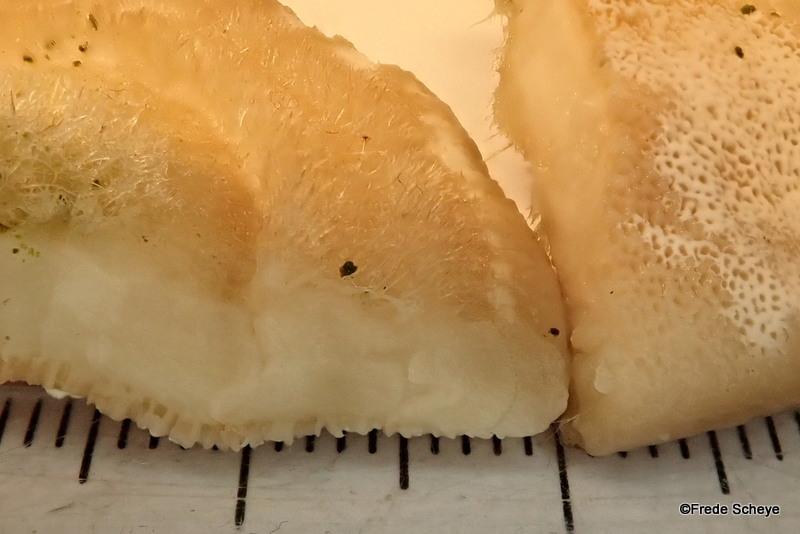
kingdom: Fungi
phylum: Basidiomycota
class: Agaricomycetes
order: Polyporales
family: Polyporaceae
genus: Trametes
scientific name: Trametes hirsuta
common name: håret læderporesvamp
